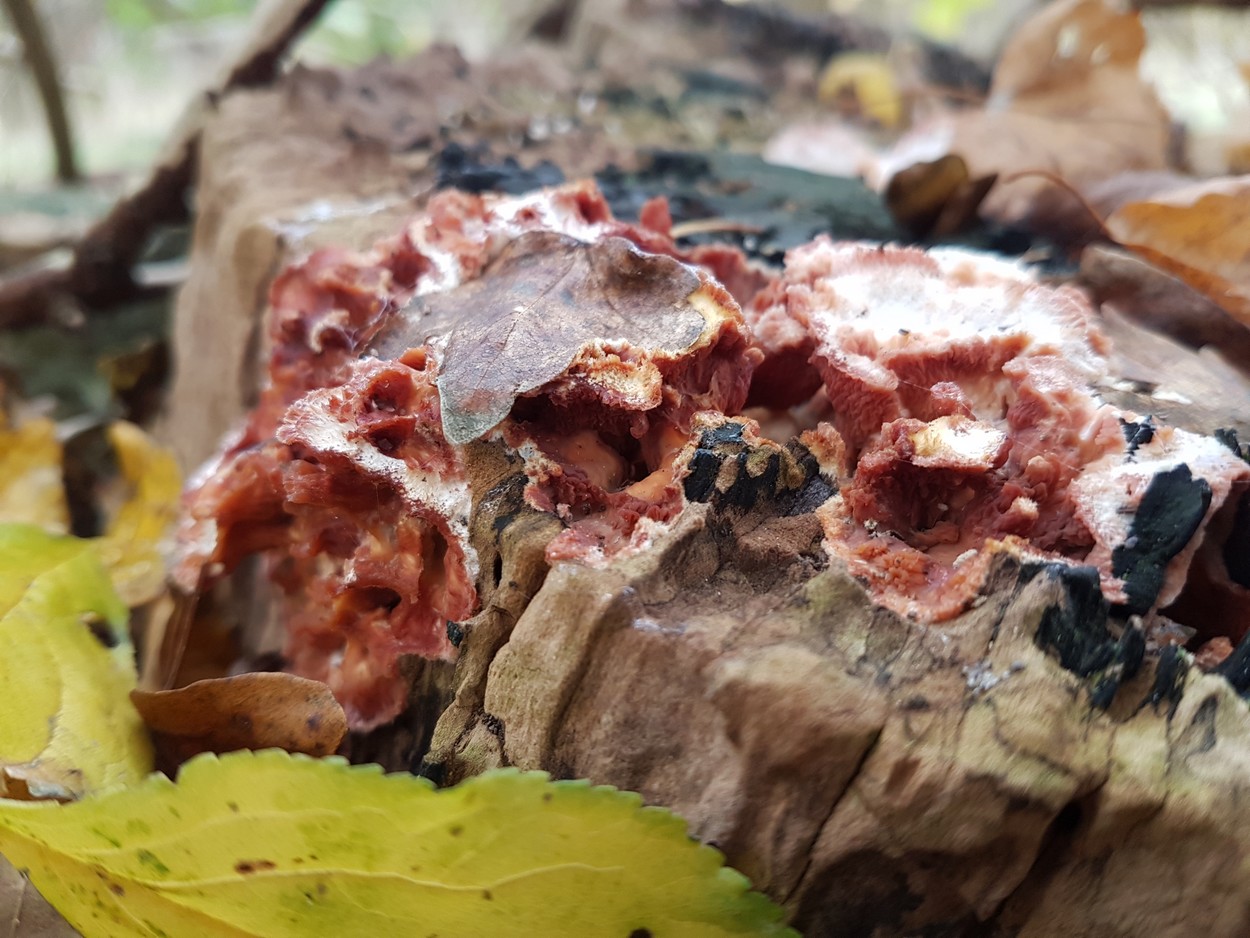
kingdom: Fungi
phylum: Basidiomycota
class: Agaricomycetes
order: Polyporales
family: Meruliaceae
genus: Phlebia
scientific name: Phlebia tremellosa
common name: bævrende åresvamp
